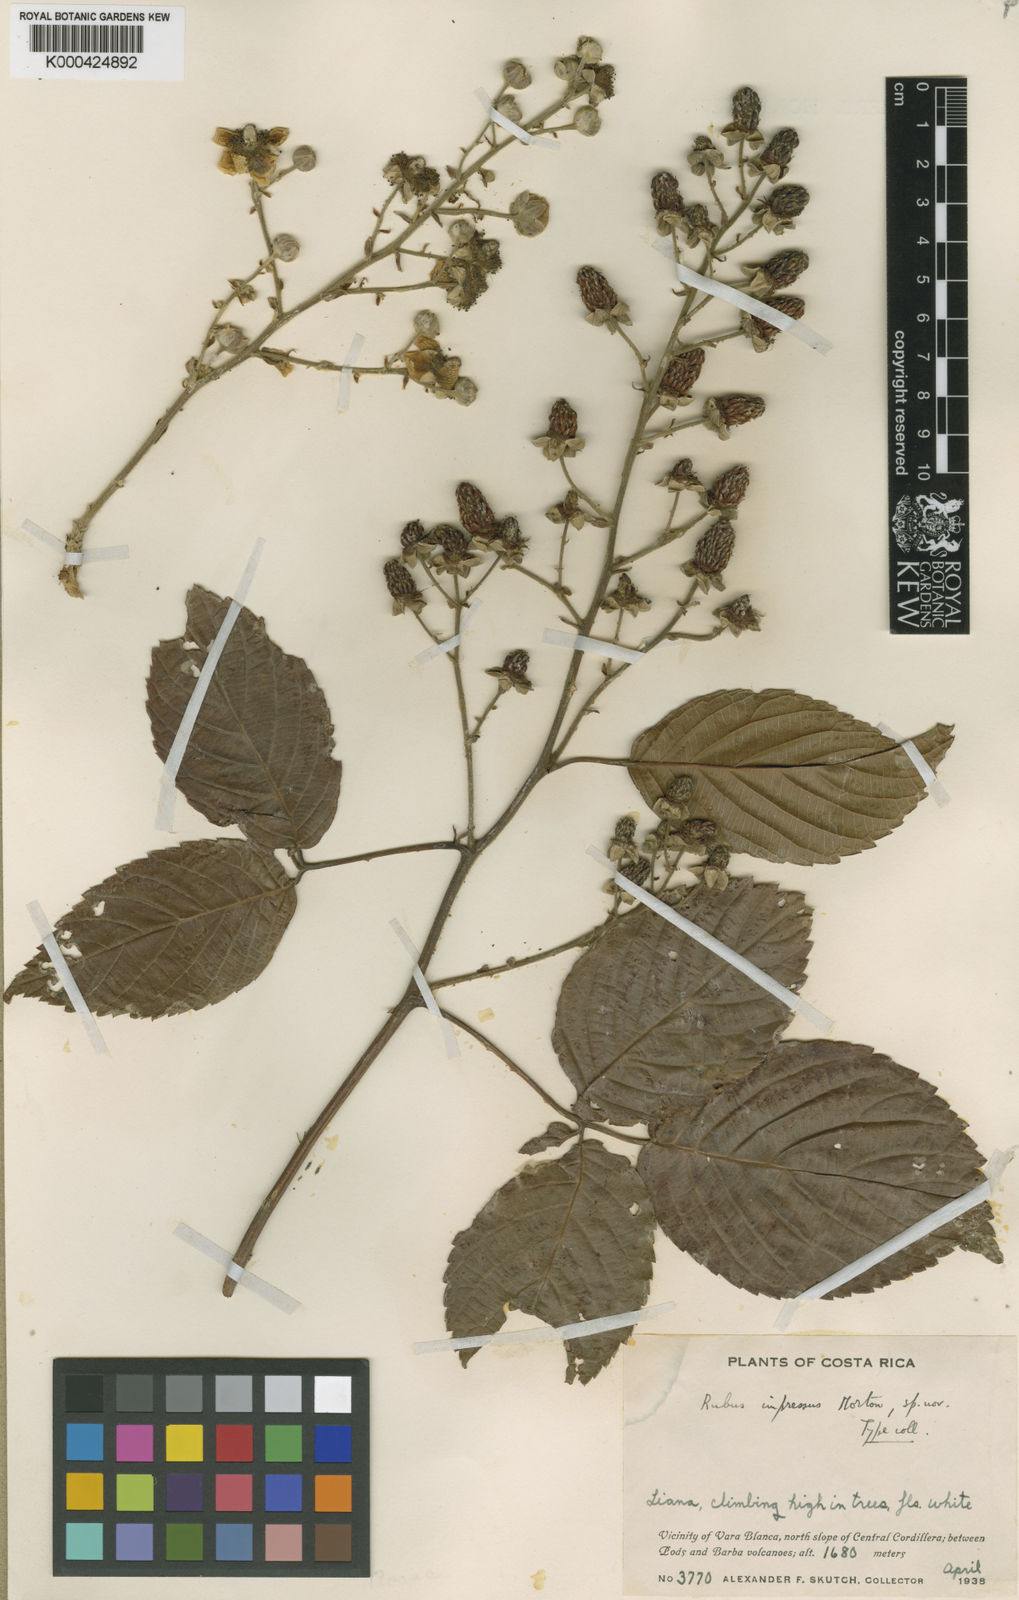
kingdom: Plantae
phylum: Tracheophyta
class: Magnoliopsida
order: Rosales
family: Rosaceae
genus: Rubus
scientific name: Rubus
